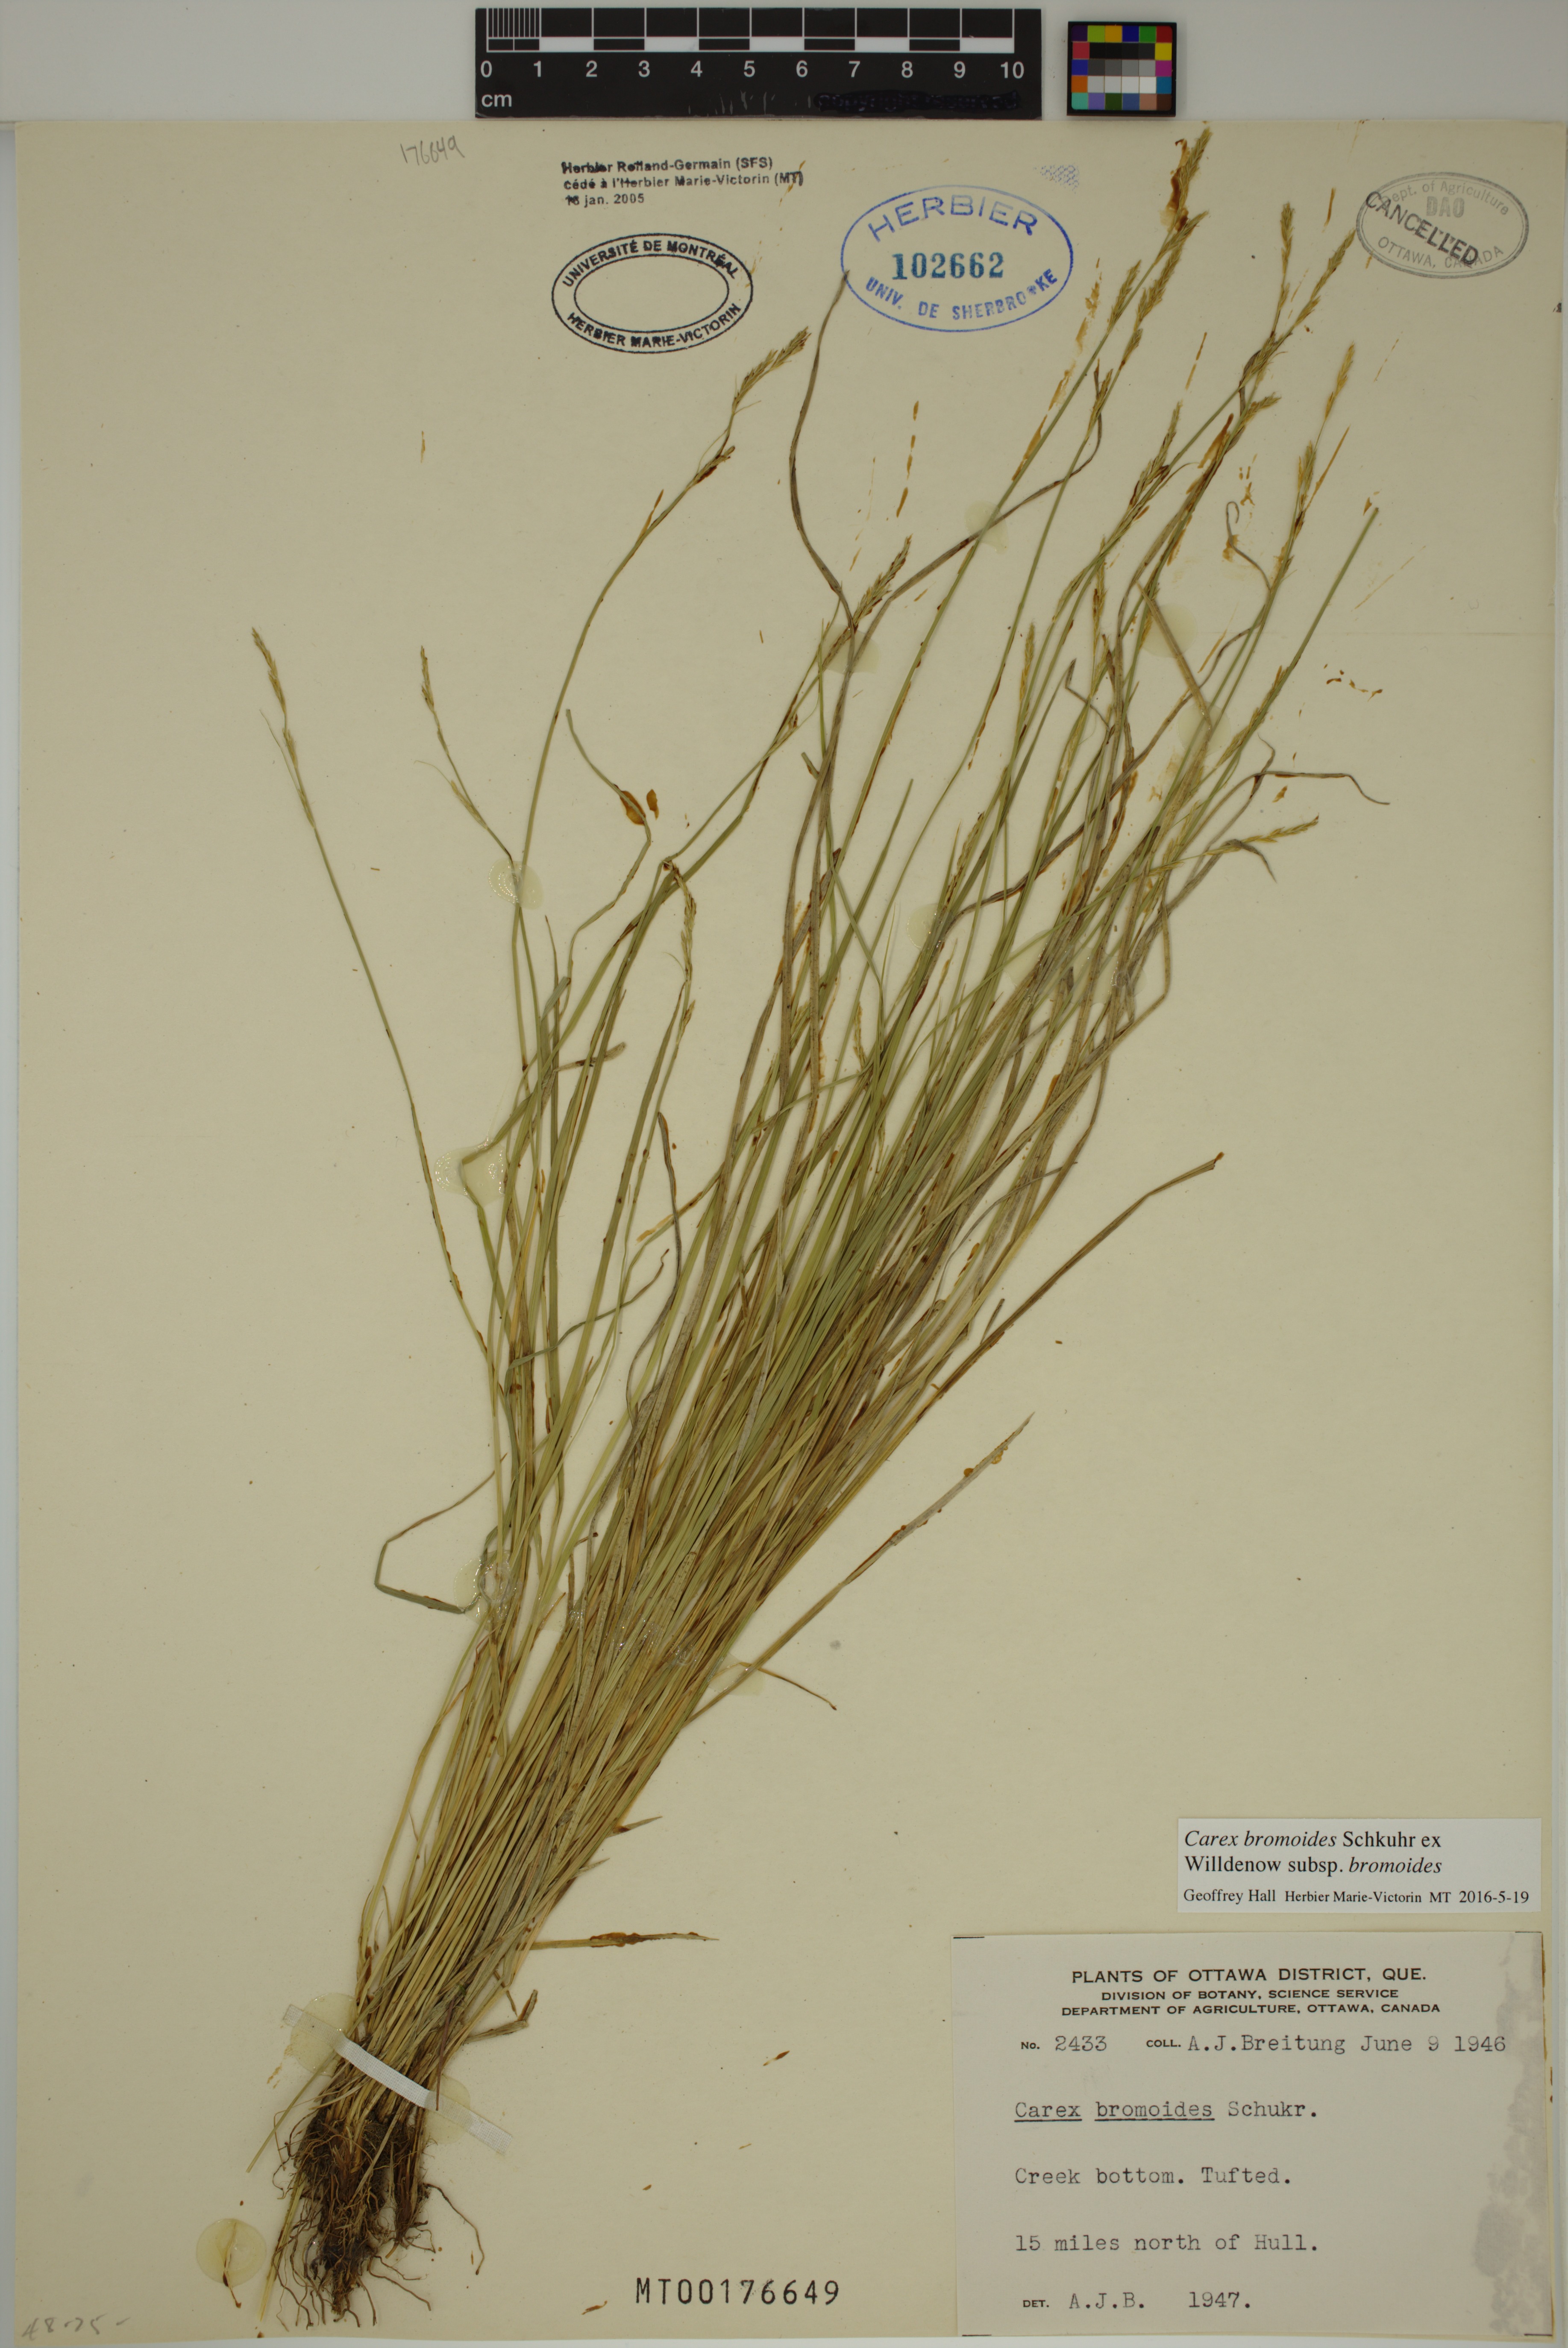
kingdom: Plantae
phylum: Tracheophyta
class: Liliopsida
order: Poales
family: Cyperaceae
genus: Carex
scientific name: Carex bromoides
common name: Brome hummock sedge
